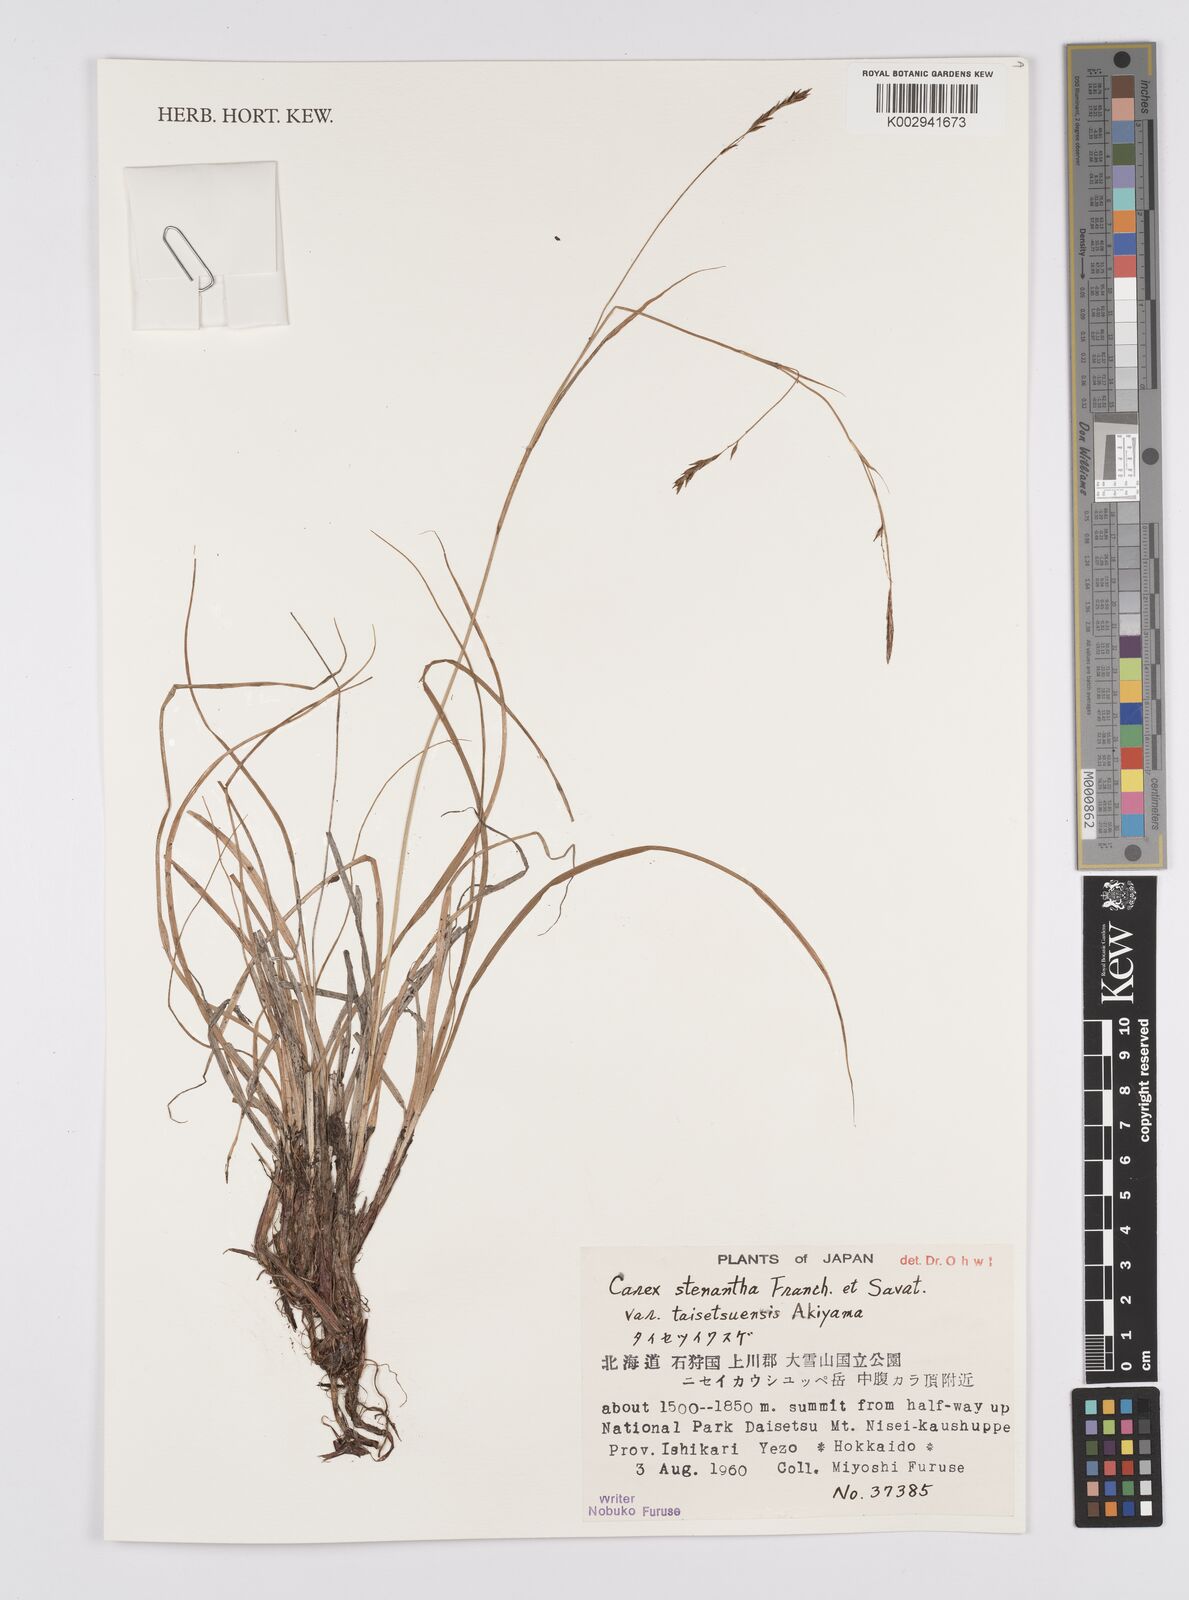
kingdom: Plantae
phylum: Tracheophyta
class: Liliopsida
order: Poales
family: Cyperaceae
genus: Carex
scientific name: Carex stenantha
